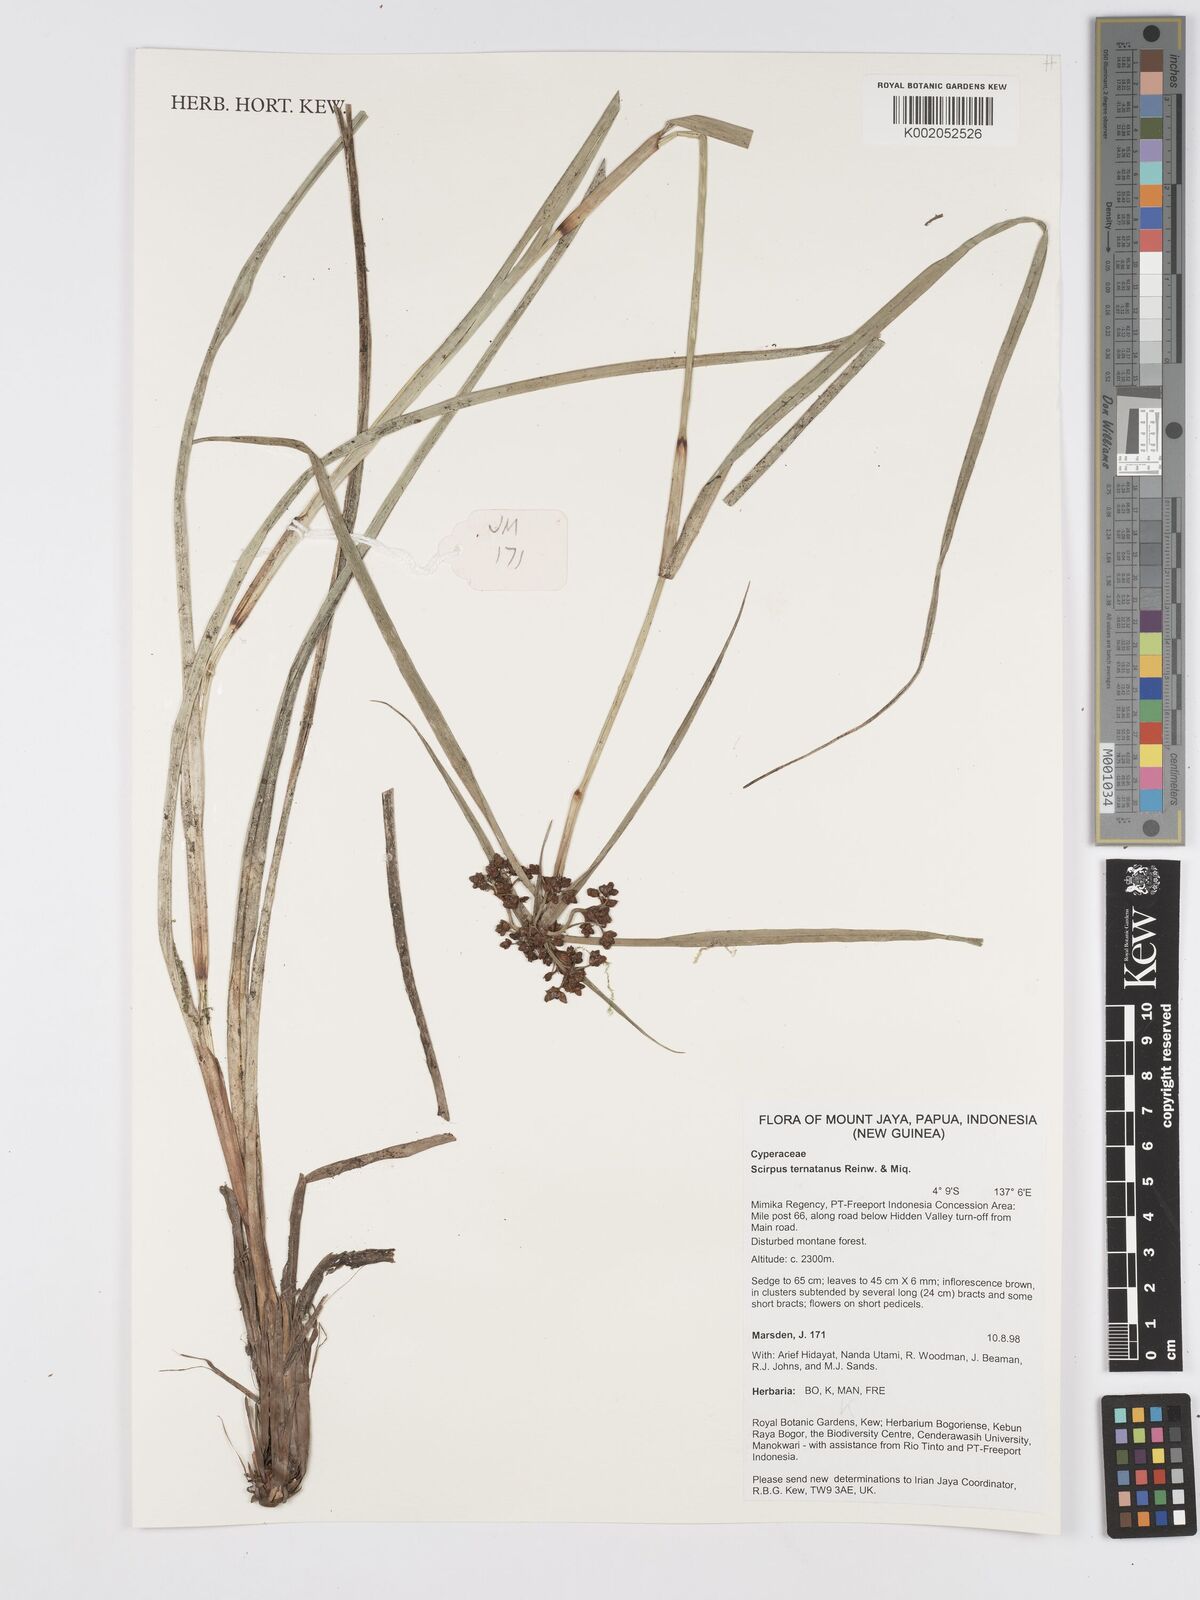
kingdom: Plantae
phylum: Tracheophyta
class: Liliopsida
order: Poales
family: Cyperaceae
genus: Scirpus
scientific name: Scirpus ternatanus
